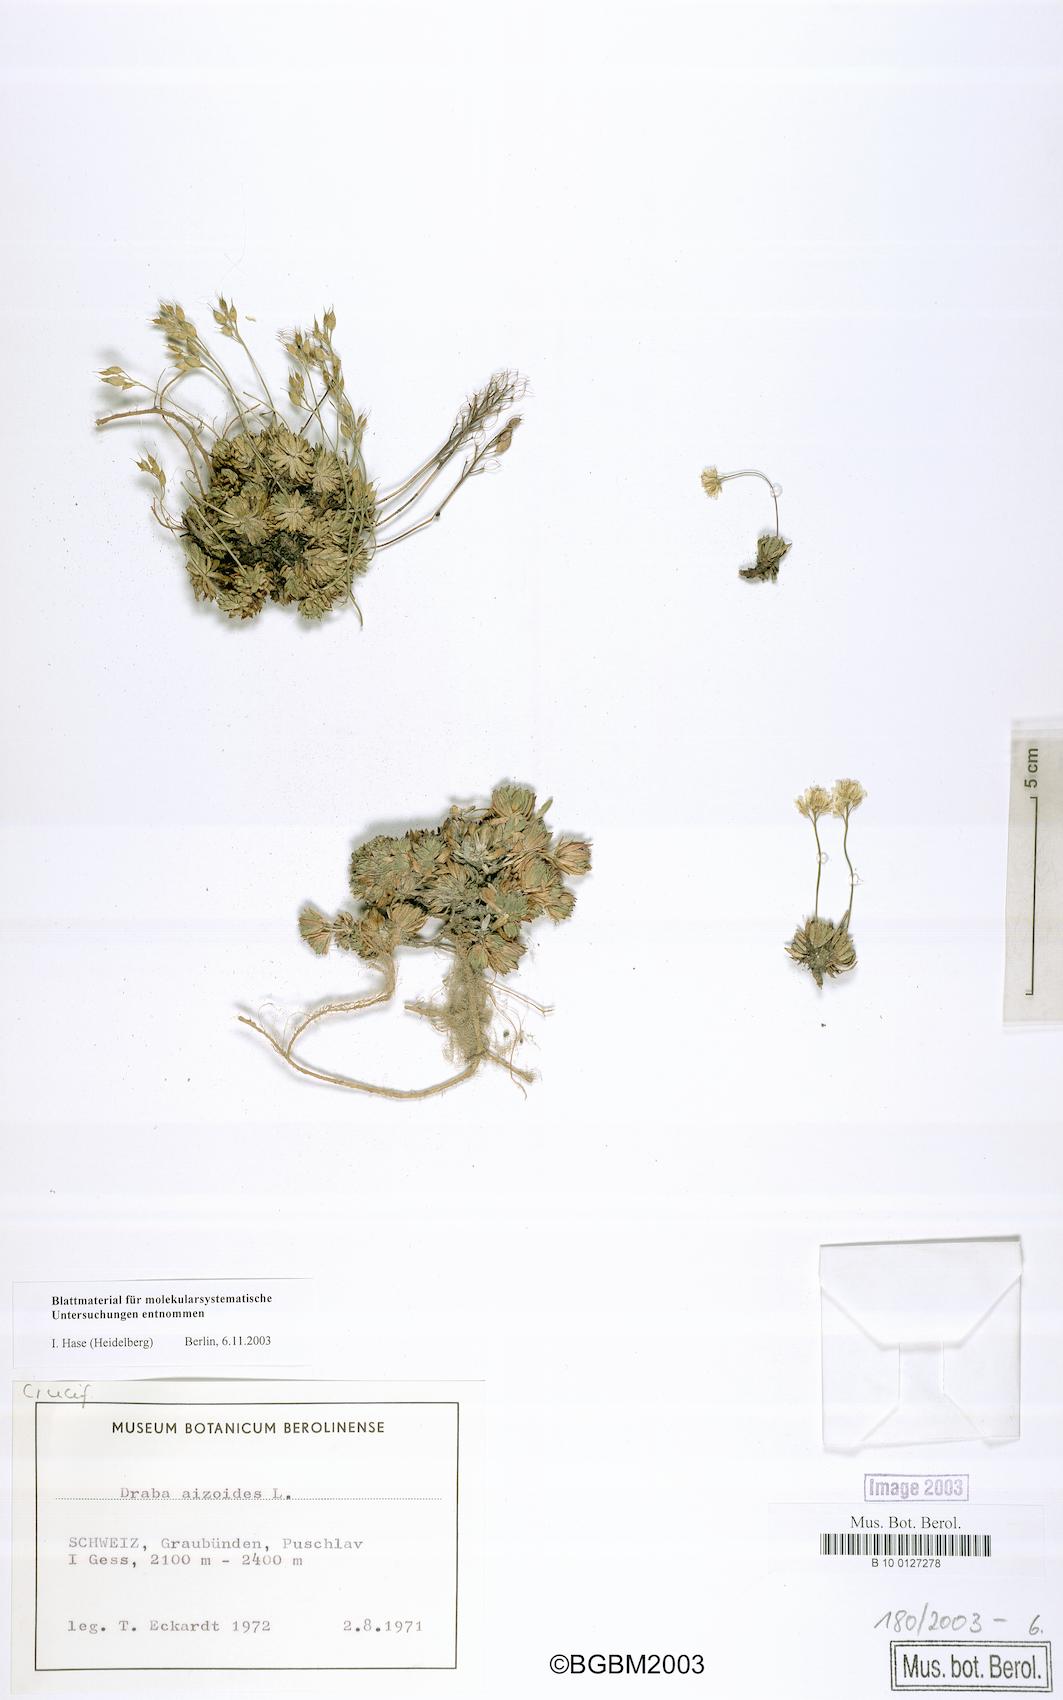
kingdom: Plantae
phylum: Tracheophyta
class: Magnoliopsida
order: Brassicales
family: Brassicaceae
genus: Draba
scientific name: Draba aizoides
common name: Yellow whitlowgrass
